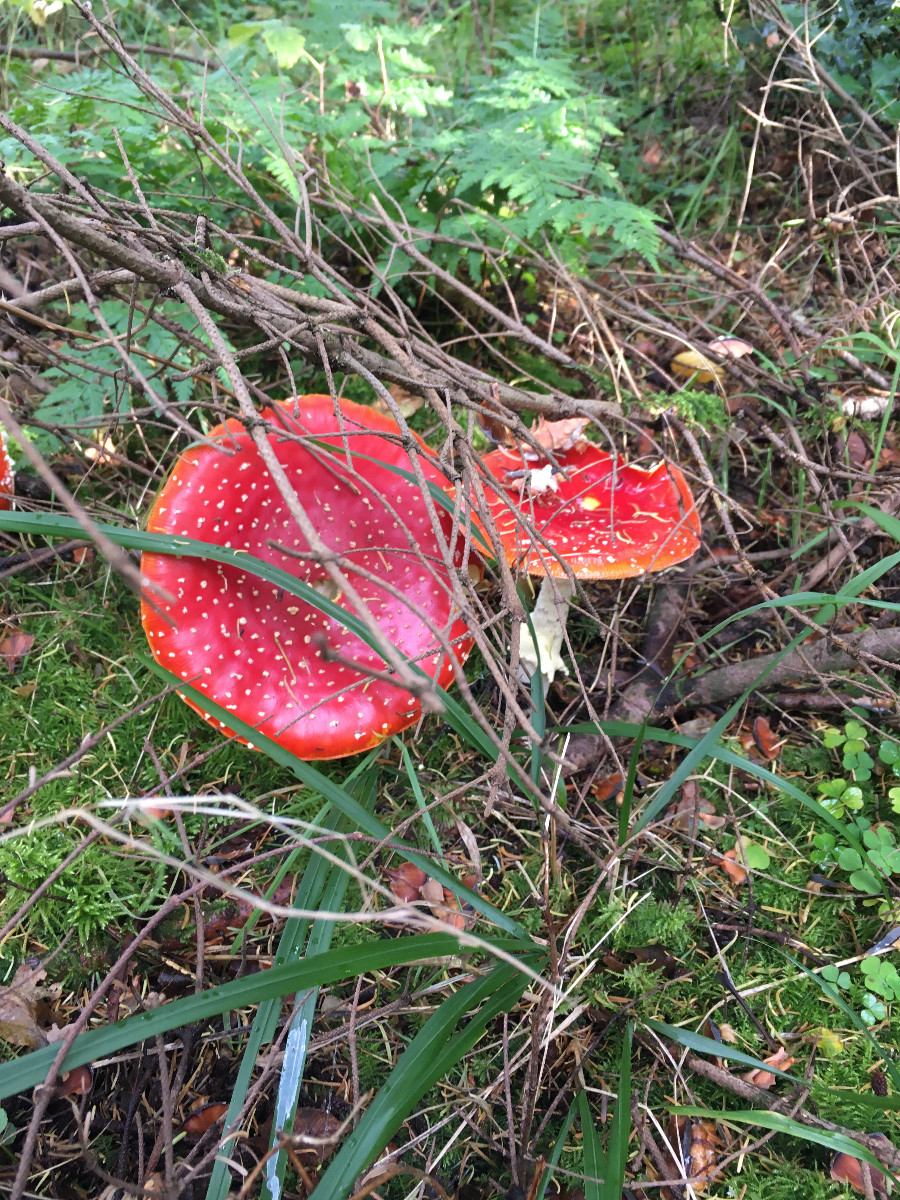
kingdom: Fungi
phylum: Basidiomycota
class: Agaricomycetes
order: Agaricales
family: Amanitaceae
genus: Amanita
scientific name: Amanita muscaria
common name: rød fluesvamp
